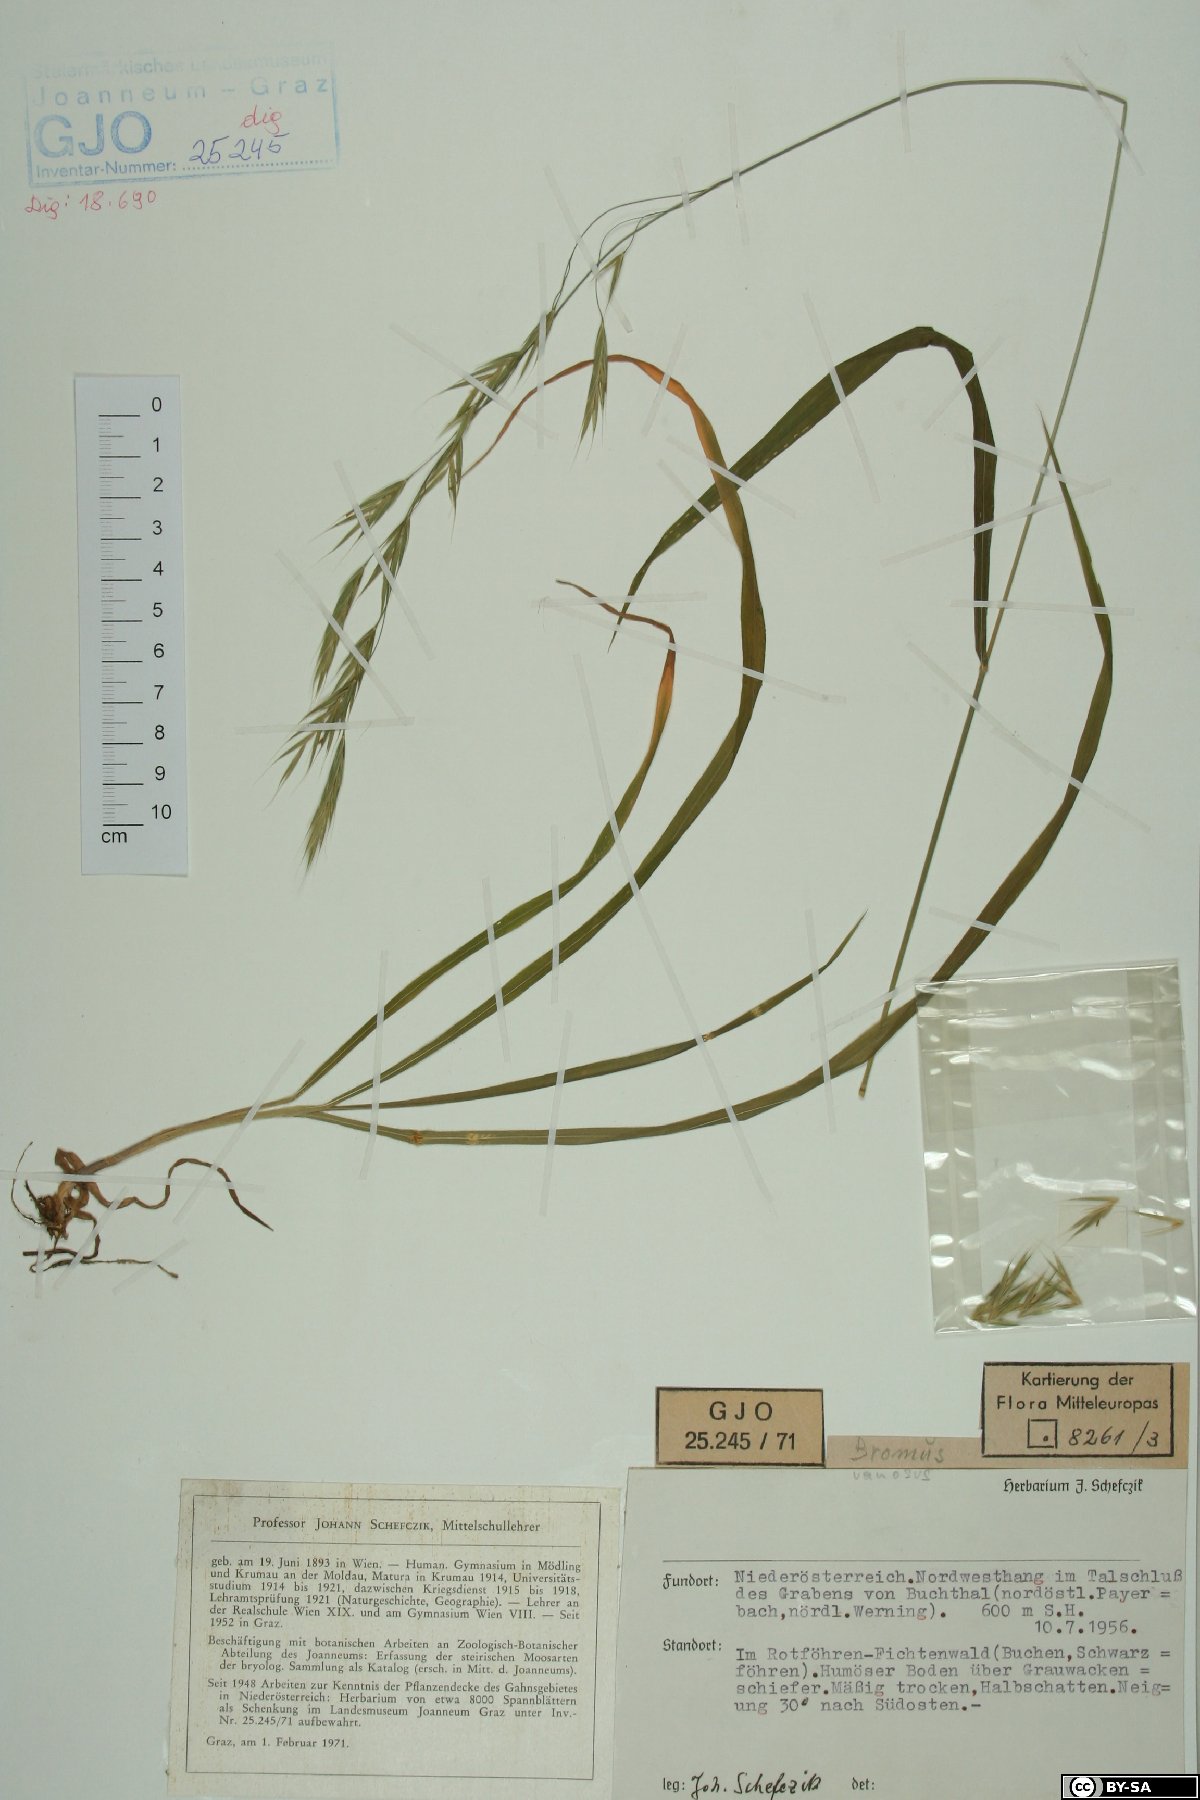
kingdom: Plantae
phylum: Tracheophyta
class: Liliopsida
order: Poales
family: Poaceae
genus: Bromus
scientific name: Bromus ramosus
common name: Hairy brome
